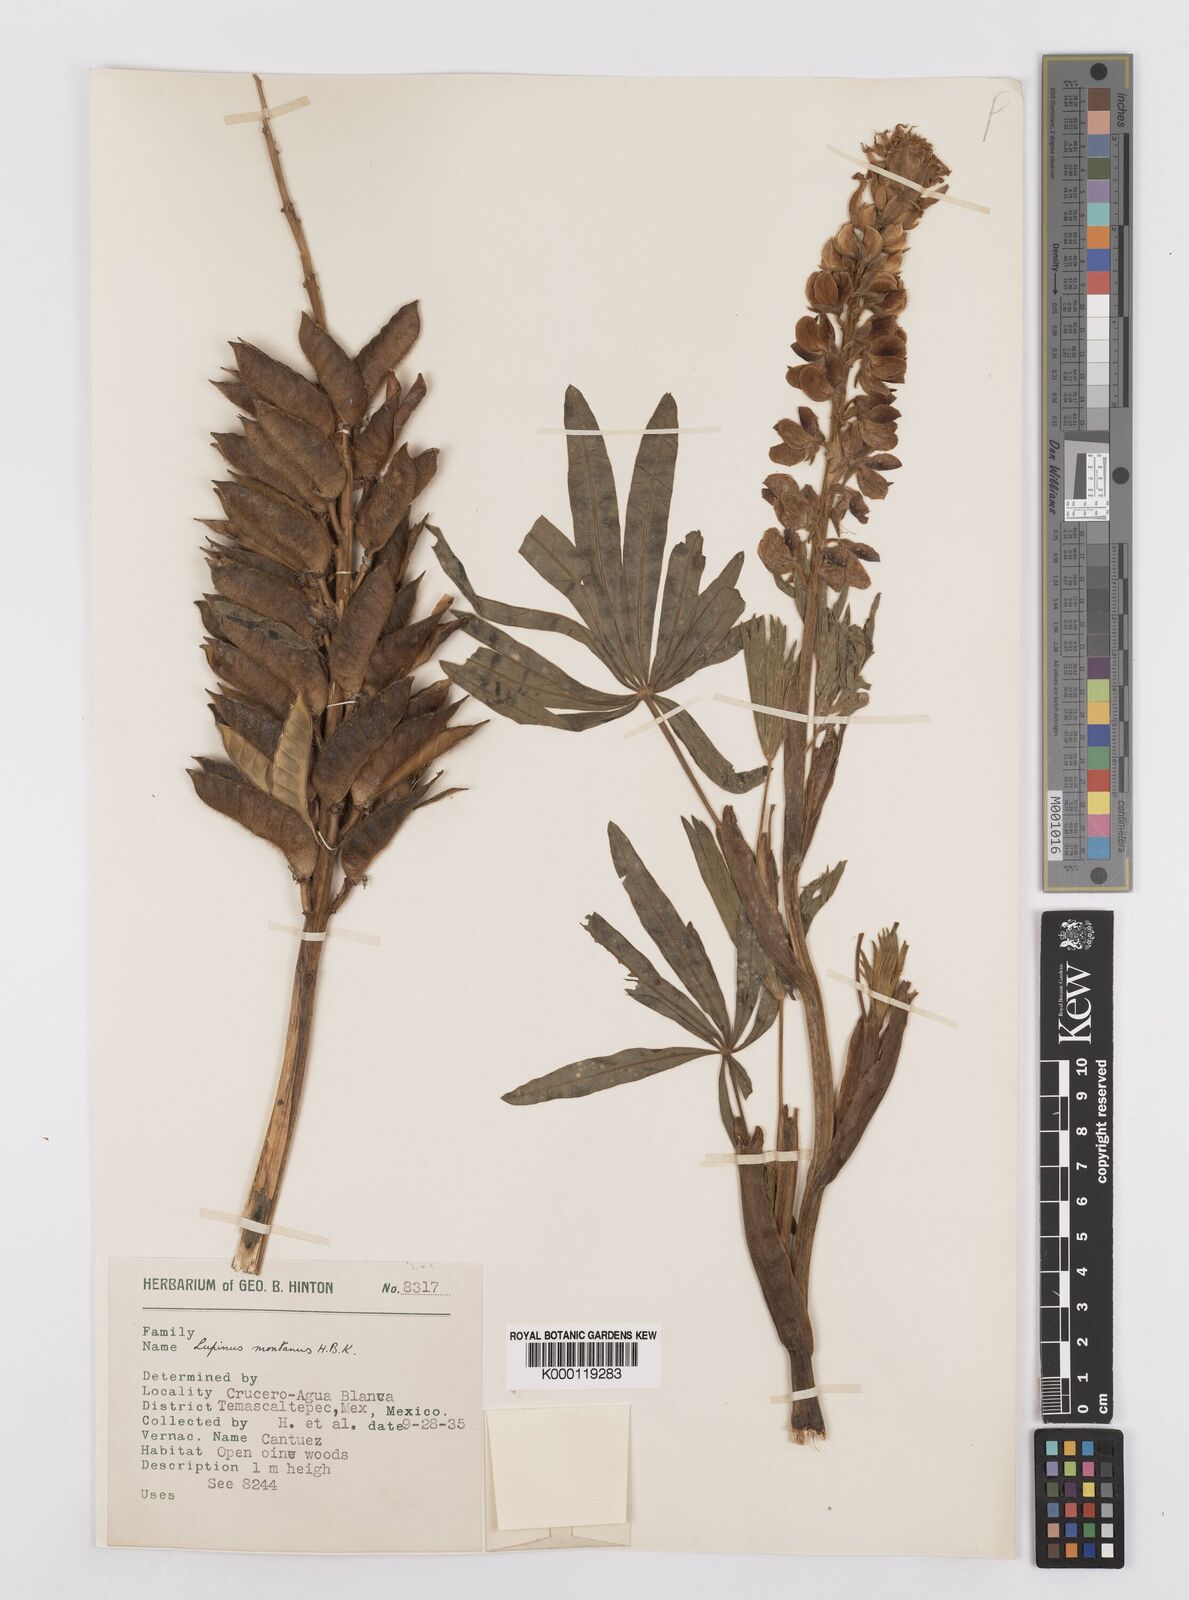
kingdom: Plantae
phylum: Tracheophyta
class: Magnoliopsida
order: Fabales
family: Fabaceae
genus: Lupinus
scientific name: Lupinus montanus
